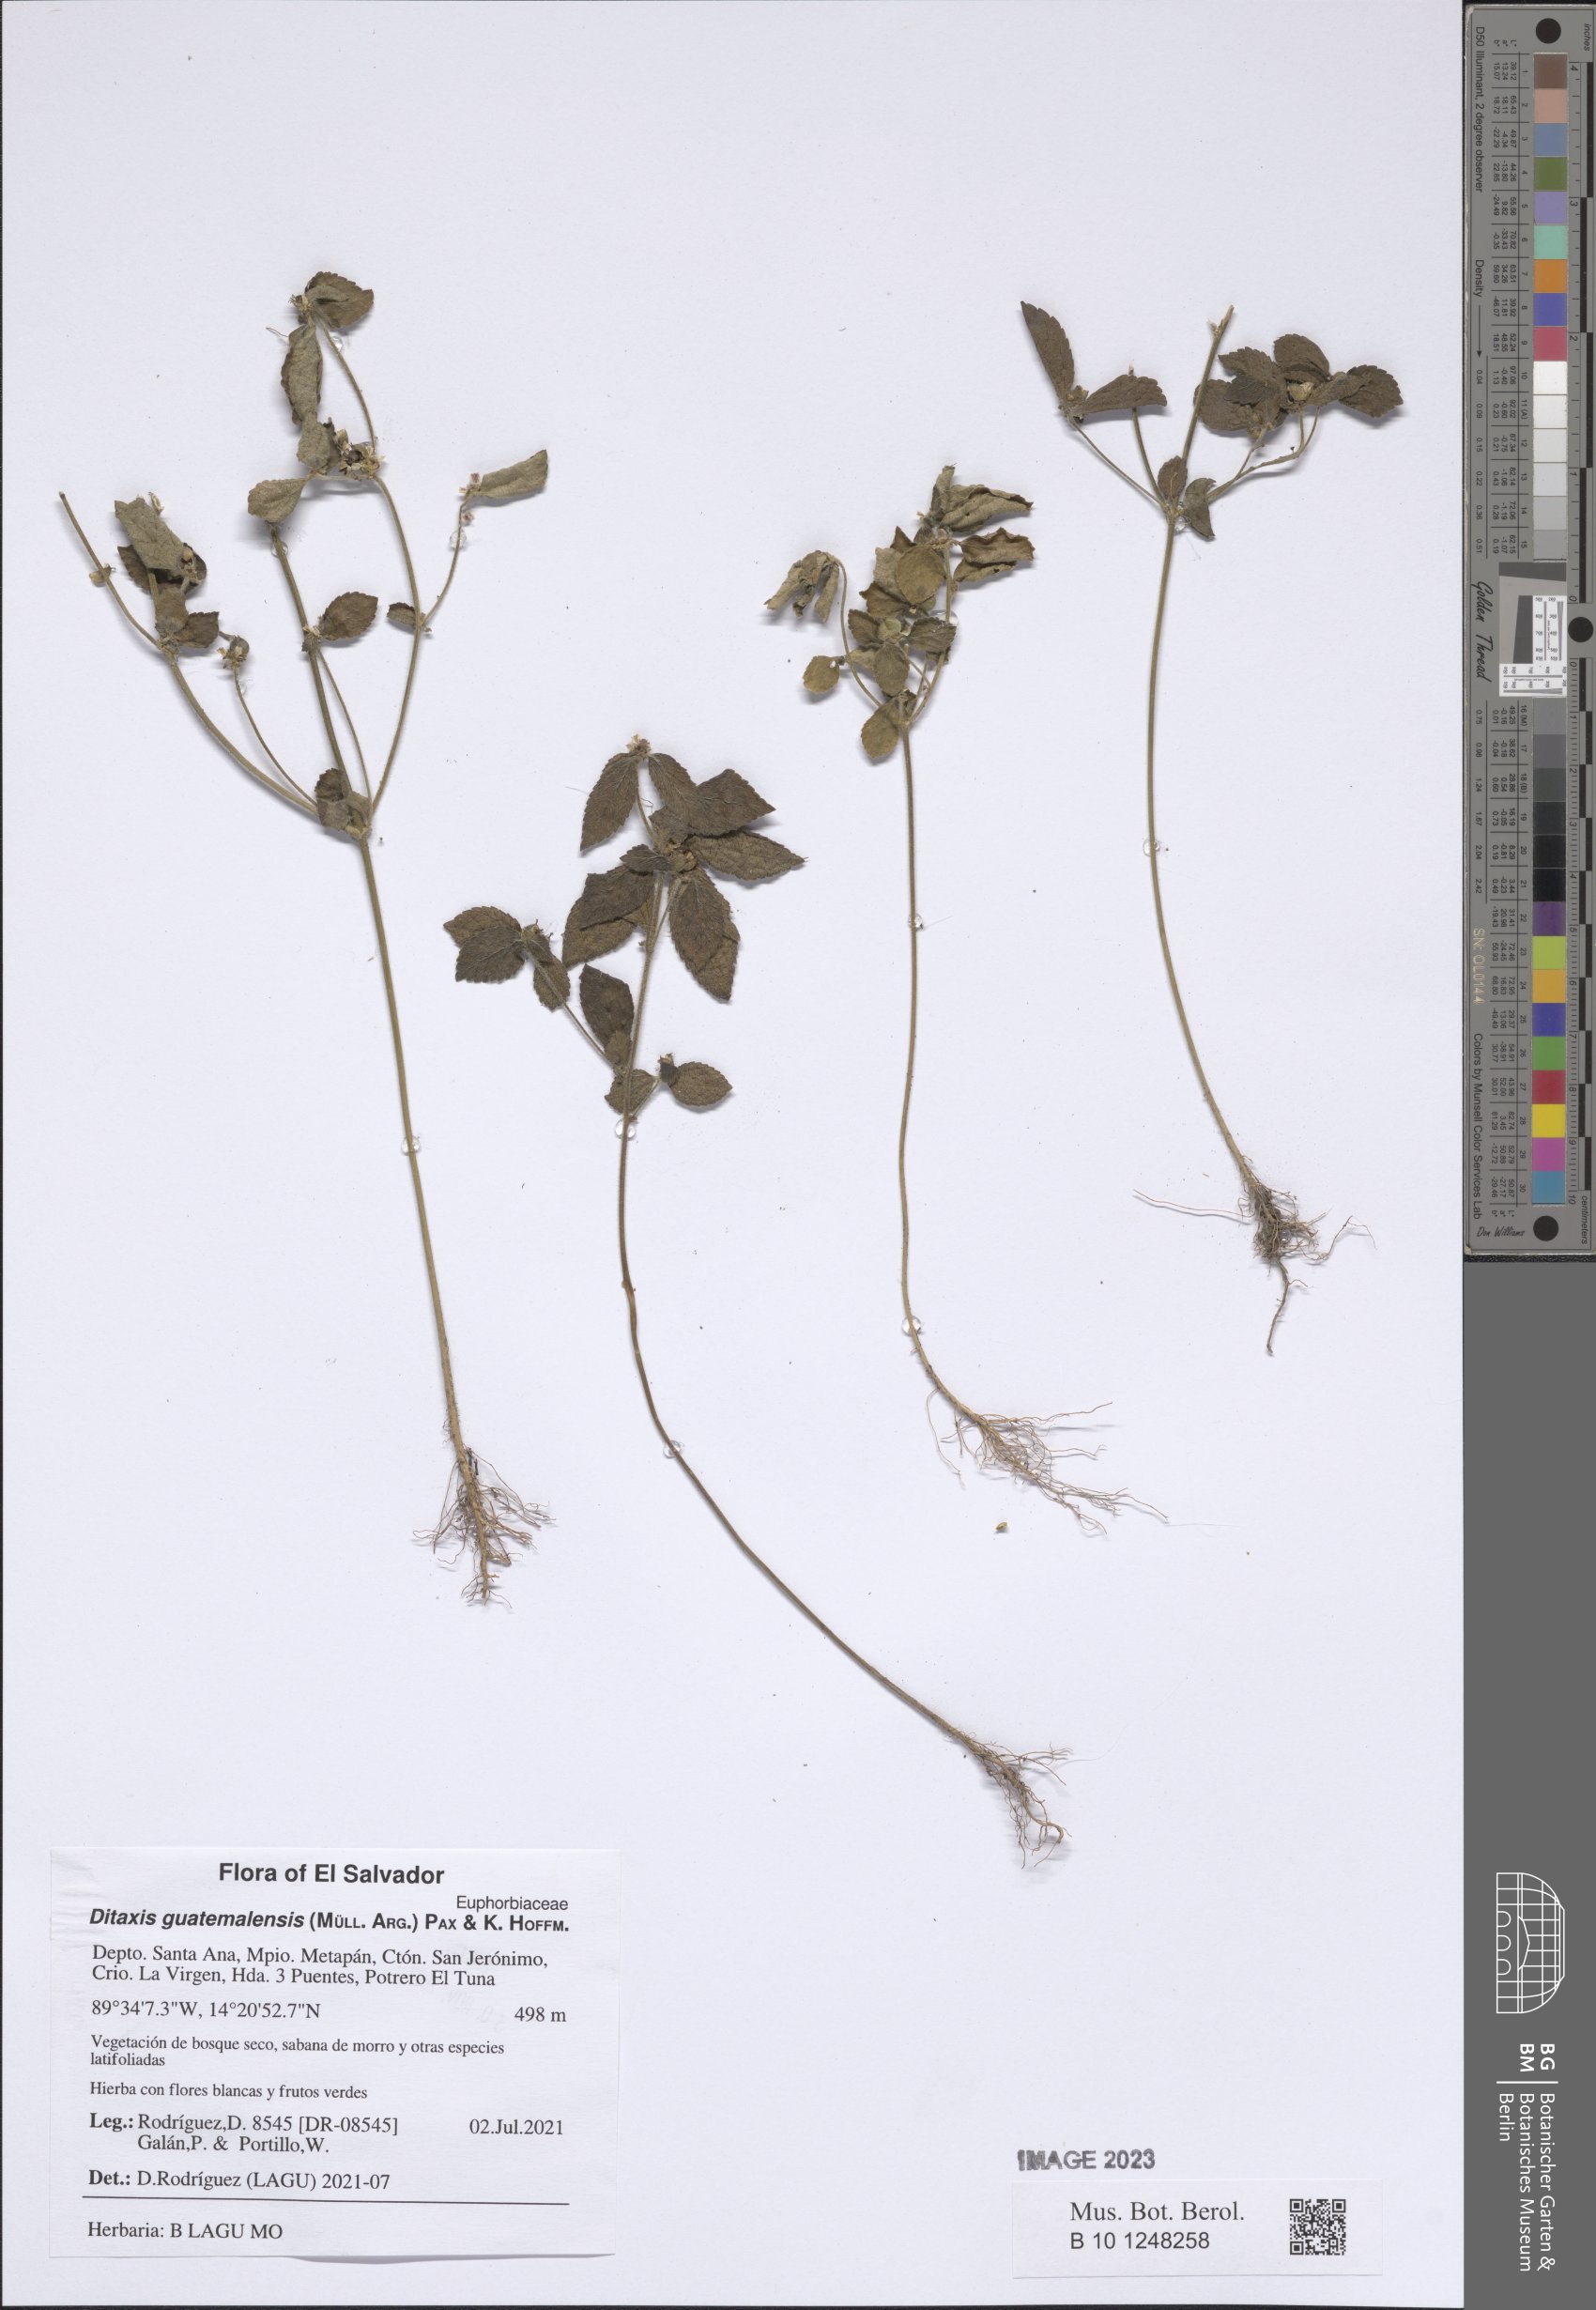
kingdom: Plantae
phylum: Tracheophyta
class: Magnoliopsida
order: Malpighiales
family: Euphorbiaceae
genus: Ditaxis
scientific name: Ditaxis guatemalensis
